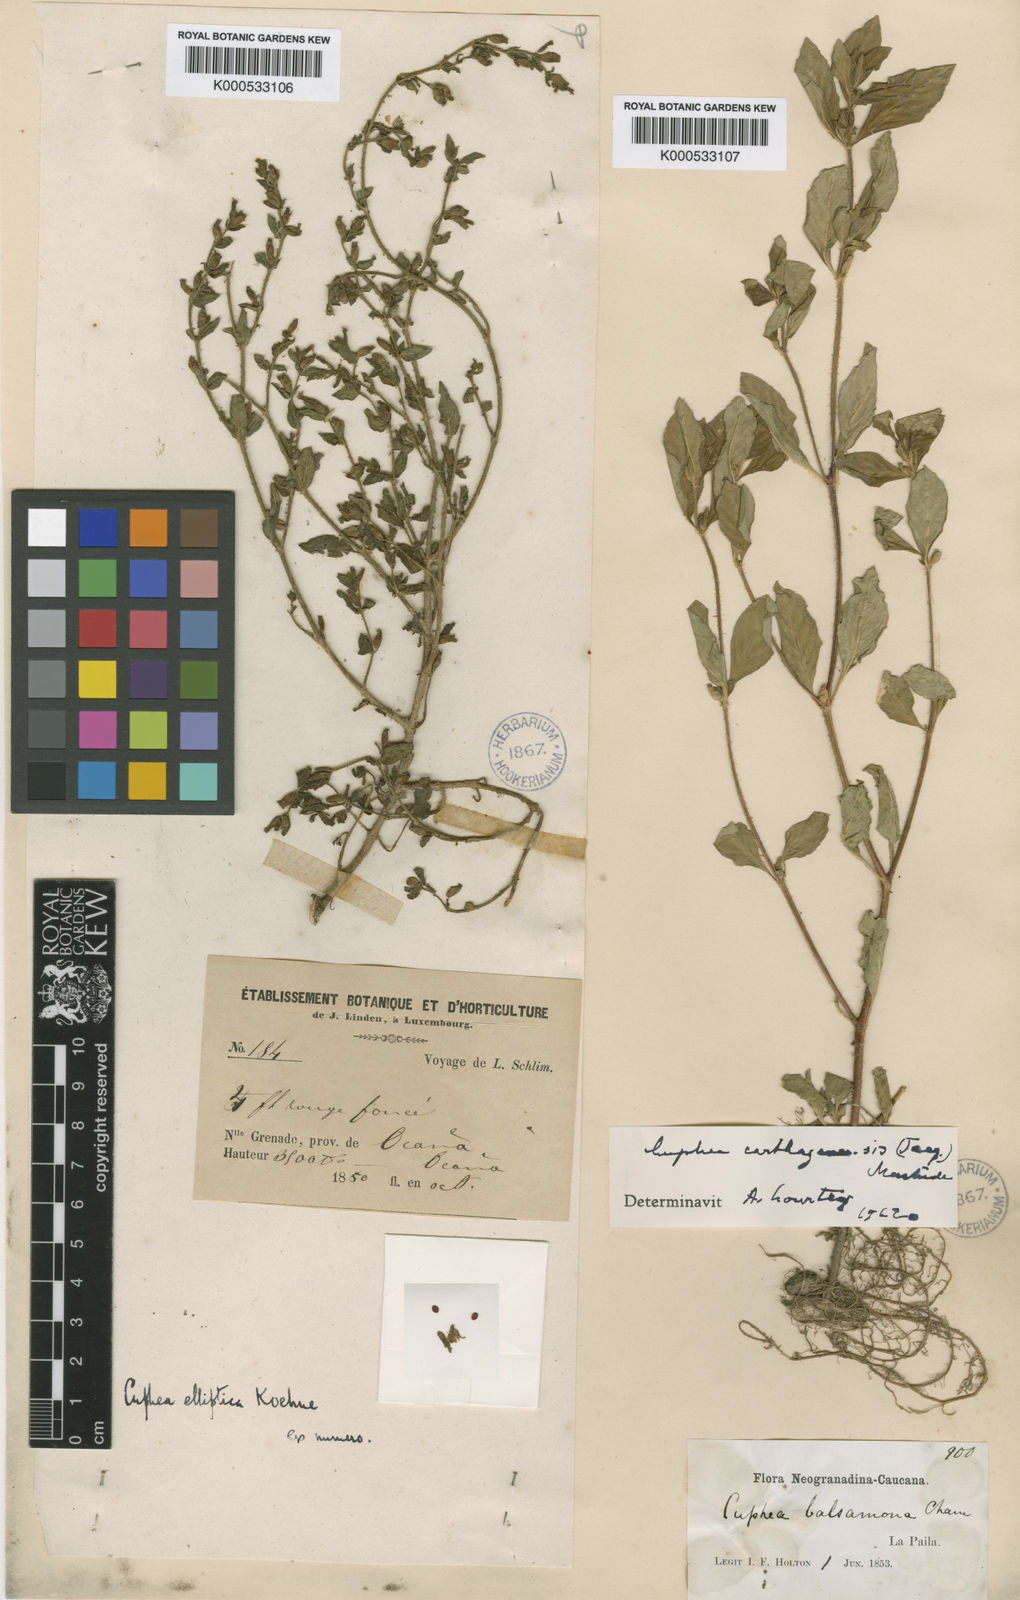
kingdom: Plantae
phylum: Tracheophyta
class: Magnoliopsida
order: Myrtales
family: Lythraceae
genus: Cuphea
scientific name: Cuphea elliptica
